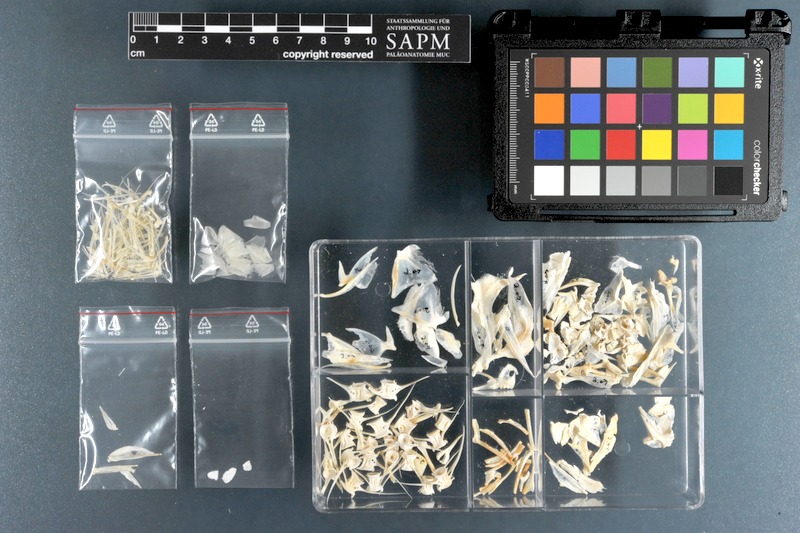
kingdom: Animalia
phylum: Chordata
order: Perciformes
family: Polynemidae
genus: Galeoides
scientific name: Galeoides decadactylus
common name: Lesser african threadfin
